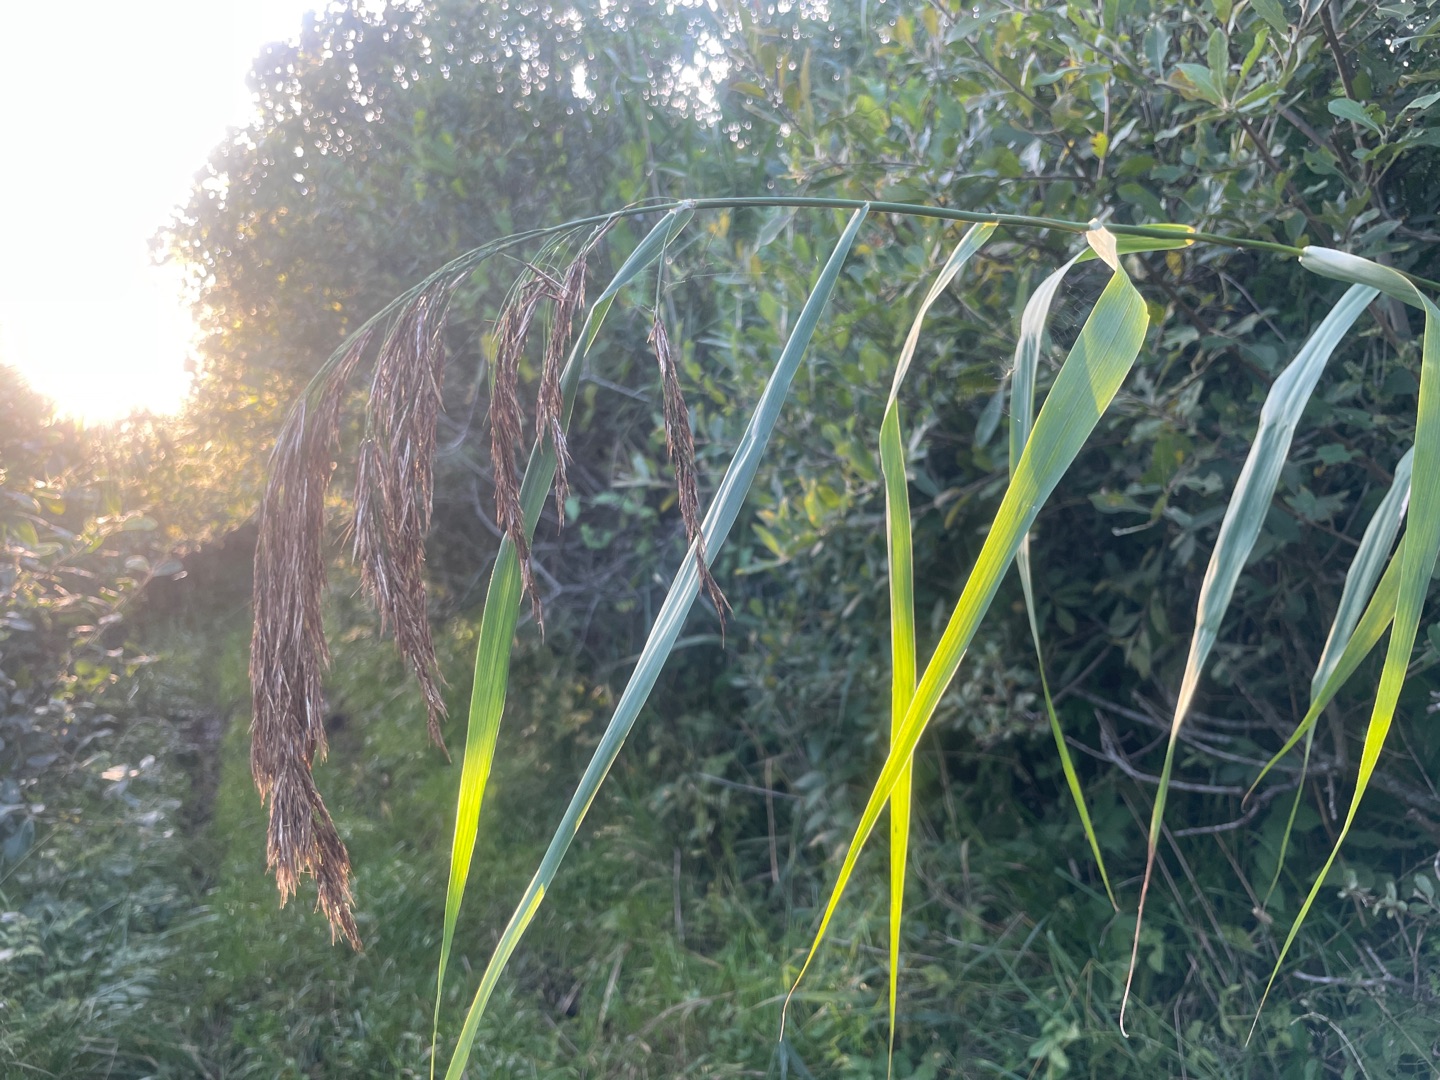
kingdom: Plantae
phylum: Tracheophyta
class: Liliopsida
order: Poales
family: Poaceae
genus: Phragmites
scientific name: Phragmites australis
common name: Tagrør
